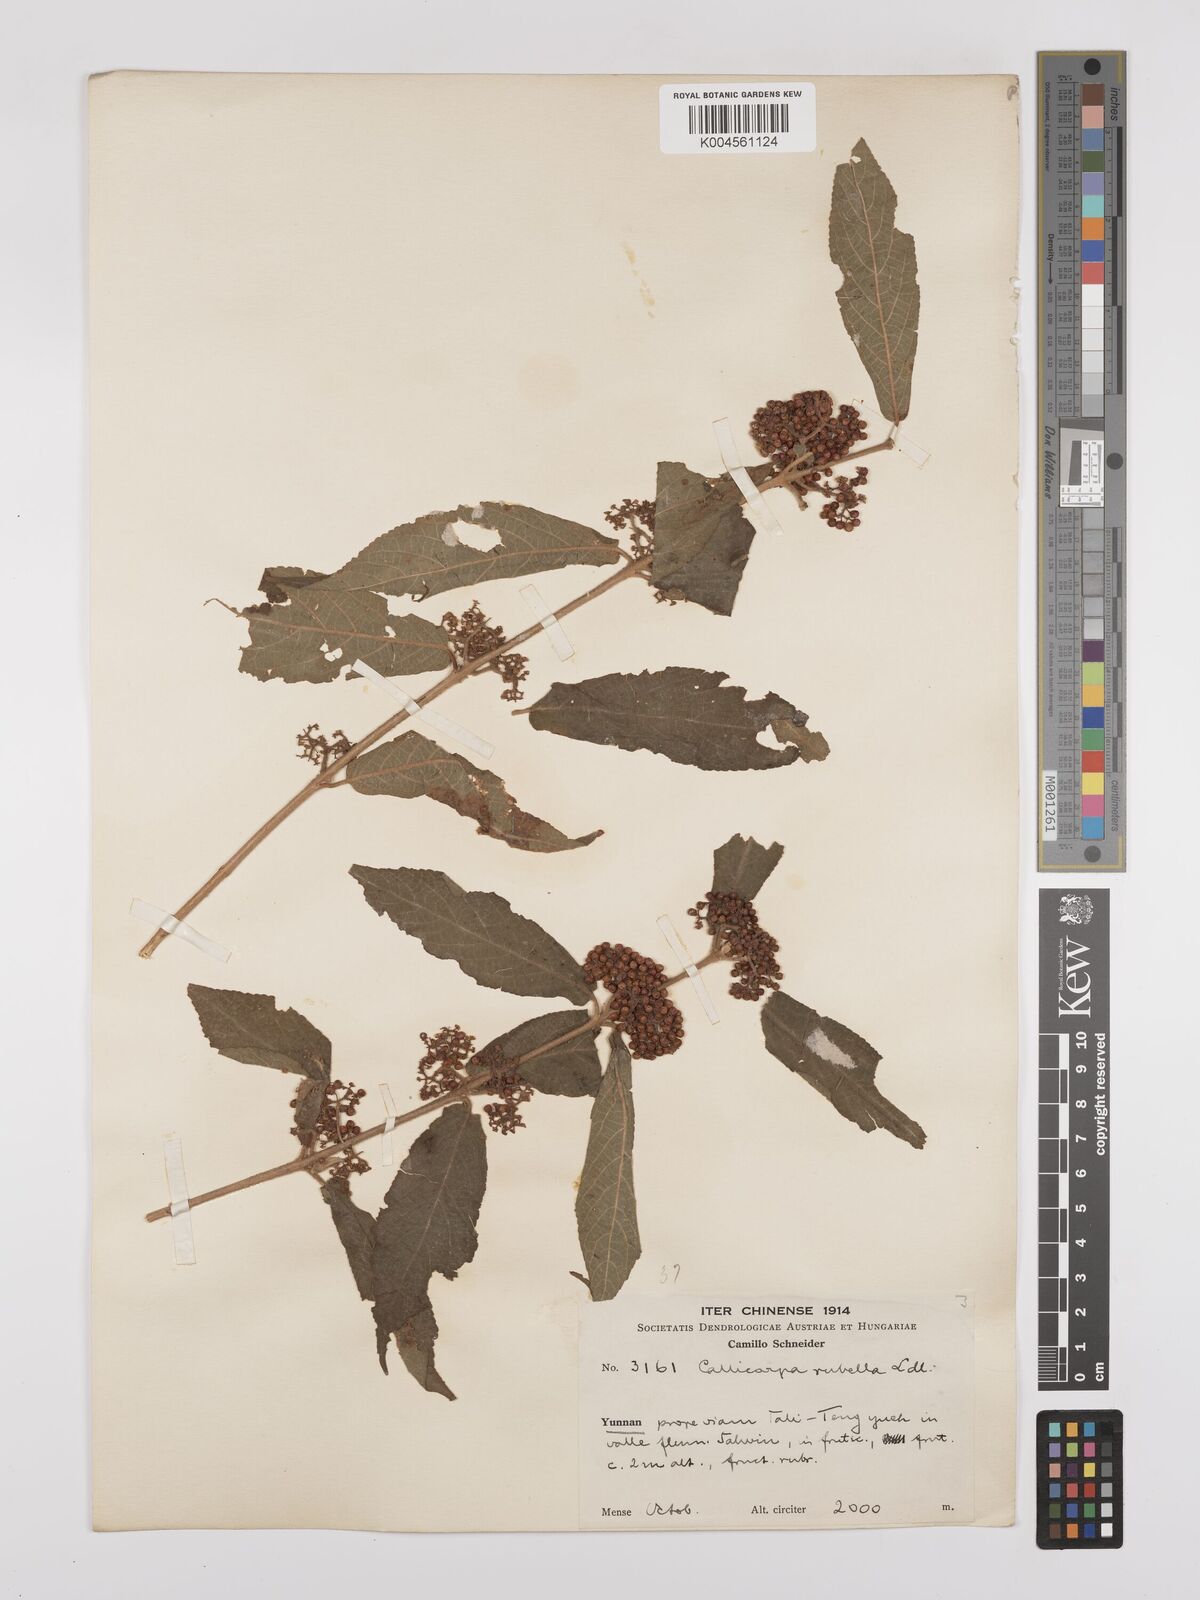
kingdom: Plantae
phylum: Tracheophyta
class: Magnoliopsida
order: Lamiales
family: Lamiaceae
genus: Callicarpa
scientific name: Callicarpa rubella
